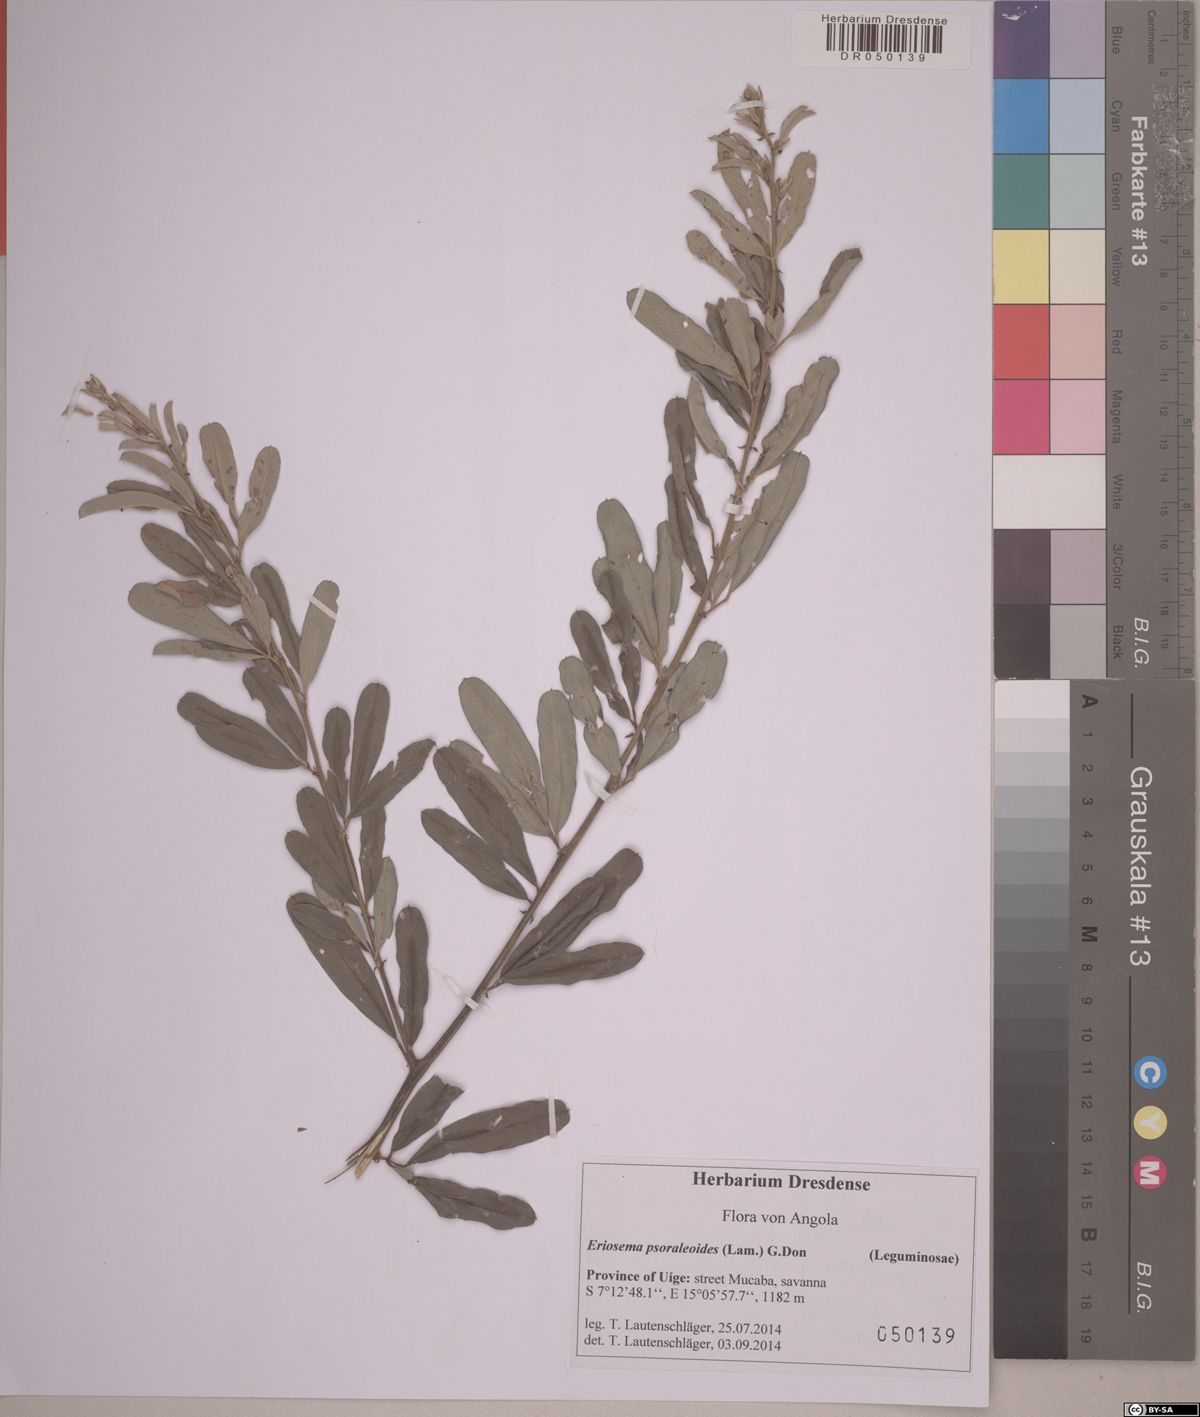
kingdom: Plantae
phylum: Tracheophyta
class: Magnoliopsida
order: Fabales
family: Fabaceae
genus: Eriosema
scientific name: Eriosema psoraleoides
